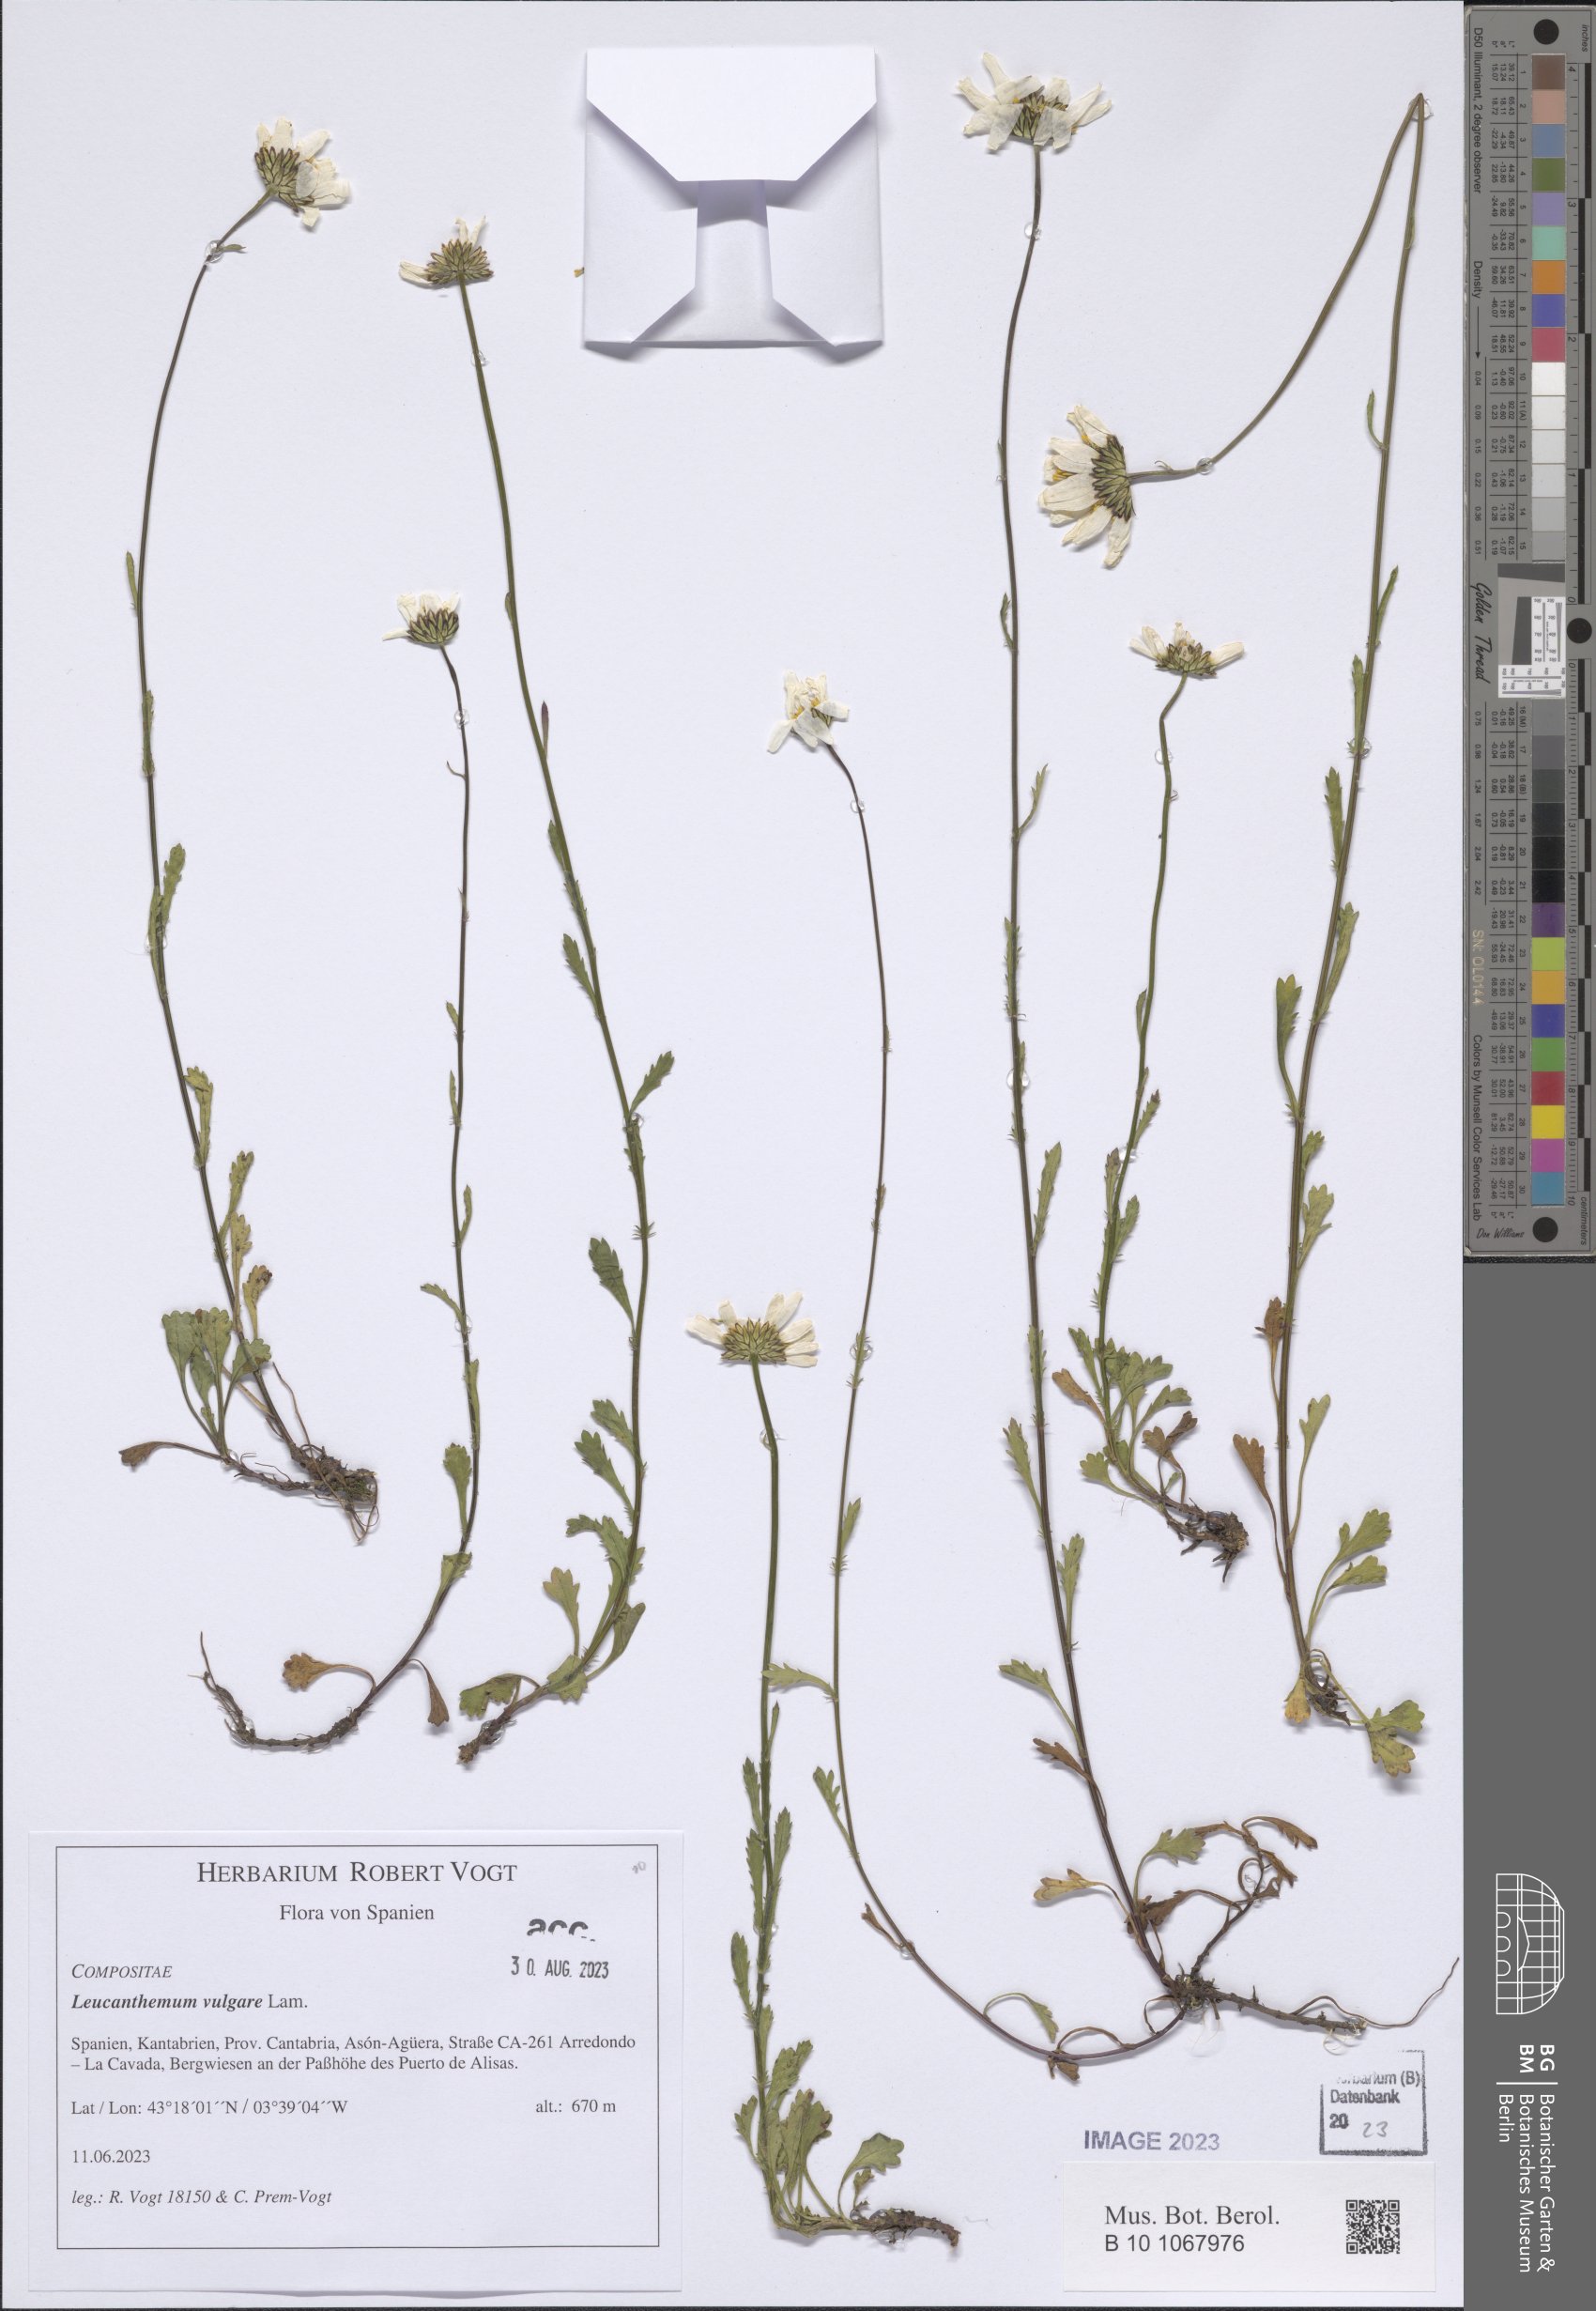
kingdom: Plantae
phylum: Tracheophyta
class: Magnoliopsida
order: Asterales
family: Asteraceae
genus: Leucanthemum
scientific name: Leucanthemum vulgare
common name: Oxeye daisy
